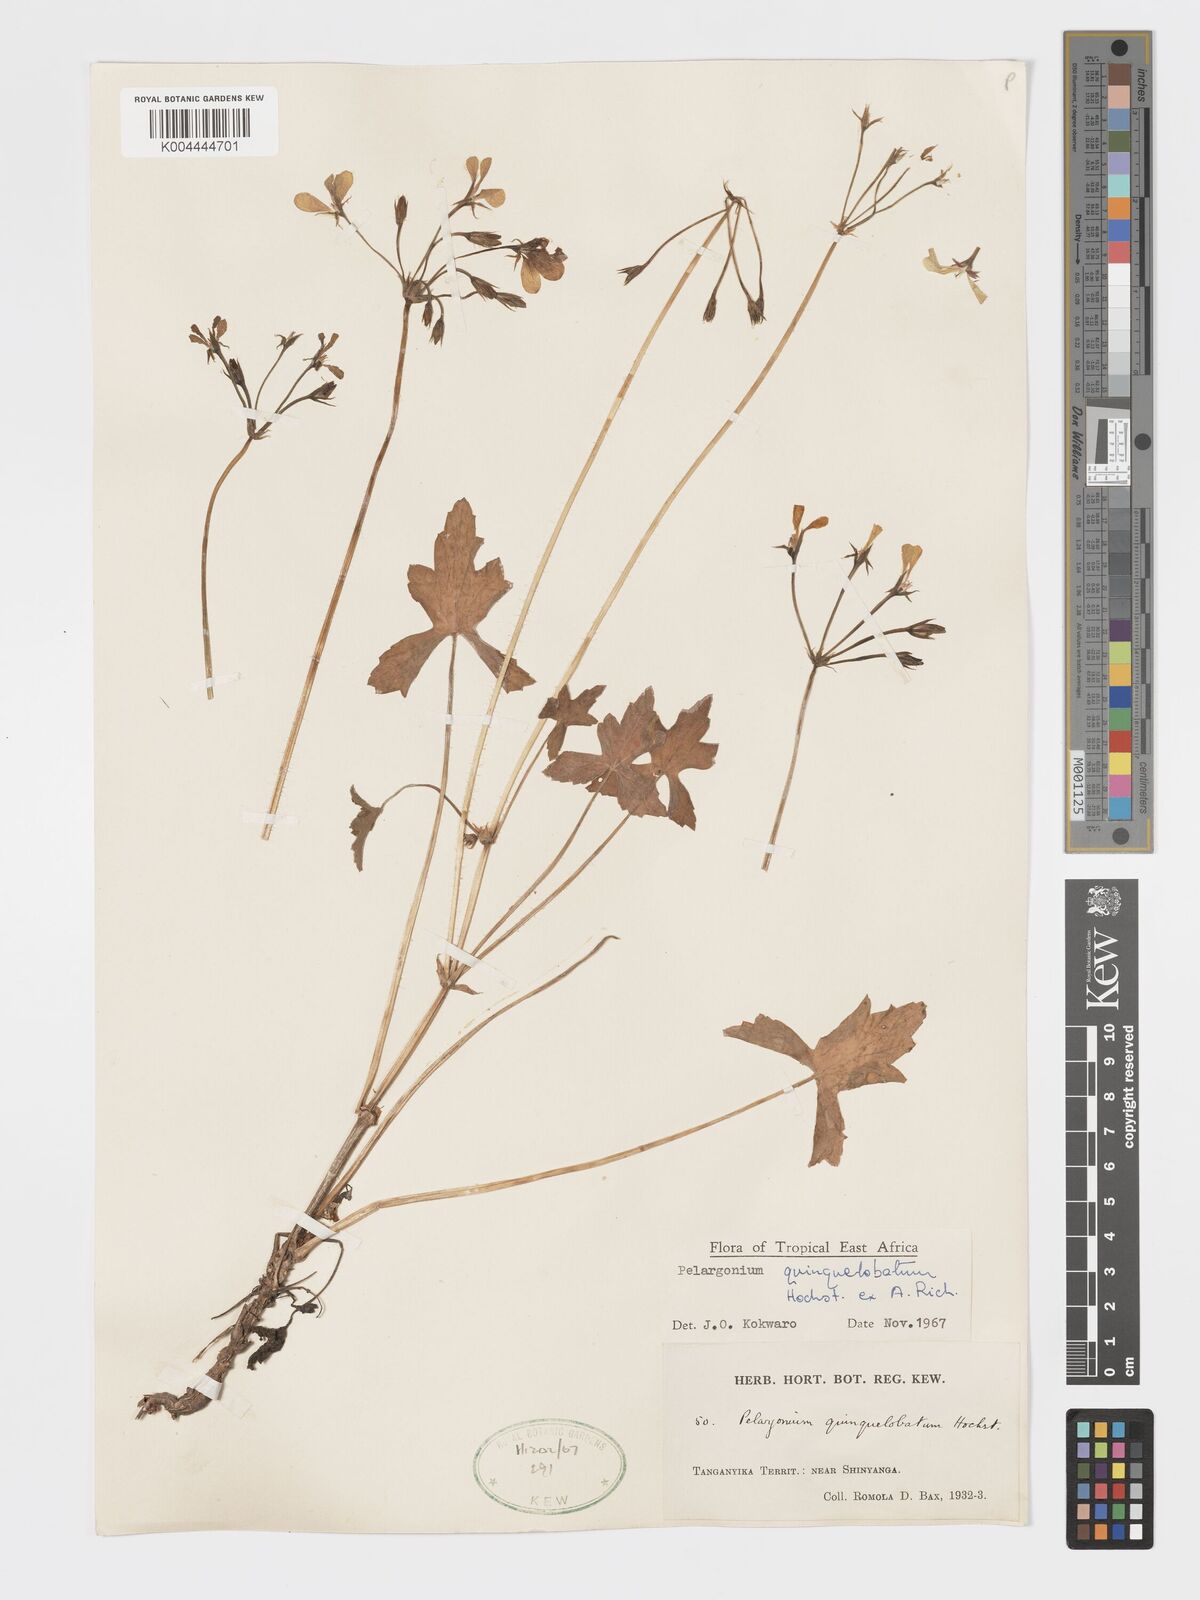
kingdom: Plantae
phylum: Tracheophyta
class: Magnoliopsida
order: Geraniales
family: Geraniaceae
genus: Pelargonium
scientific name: Pelargonium quinquelobatum
